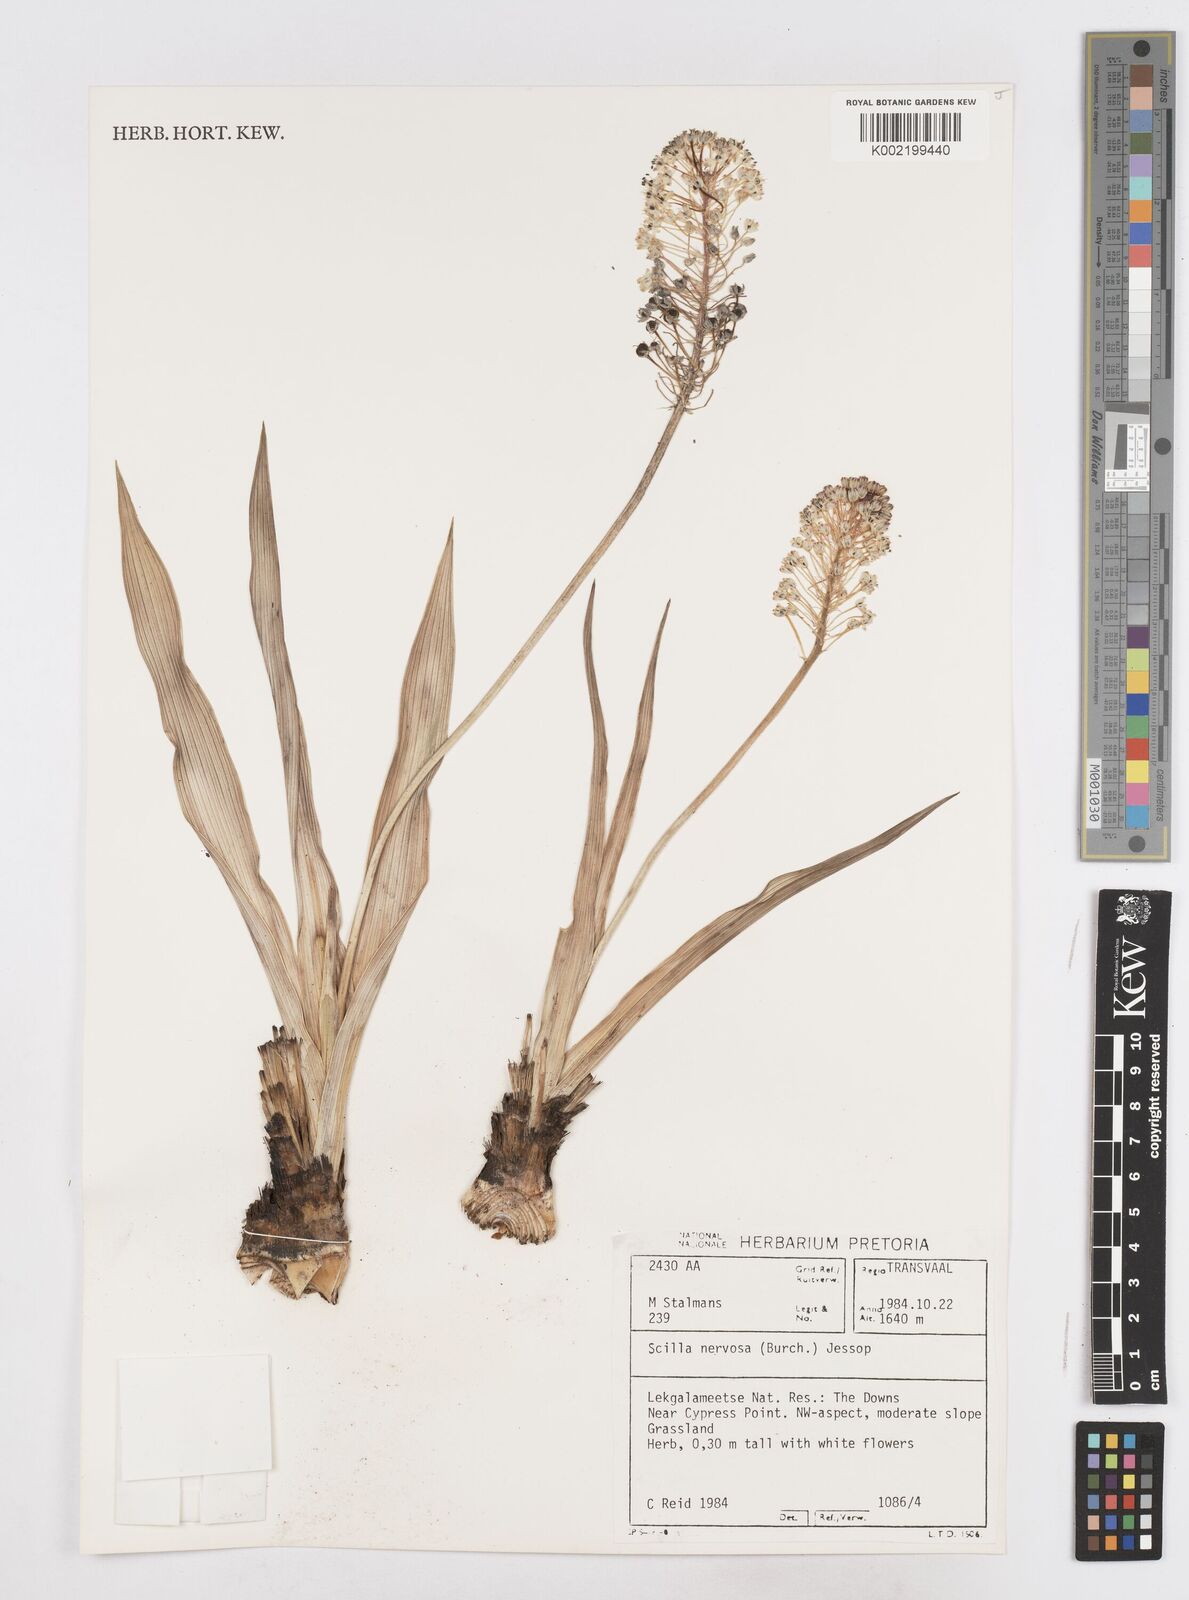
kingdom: Plantae
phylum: Tracheophyta
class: Liliopsida
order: Asparagales
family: Asparagaceae
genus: Schizocarphus
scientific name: Schizocarphus nervosus
